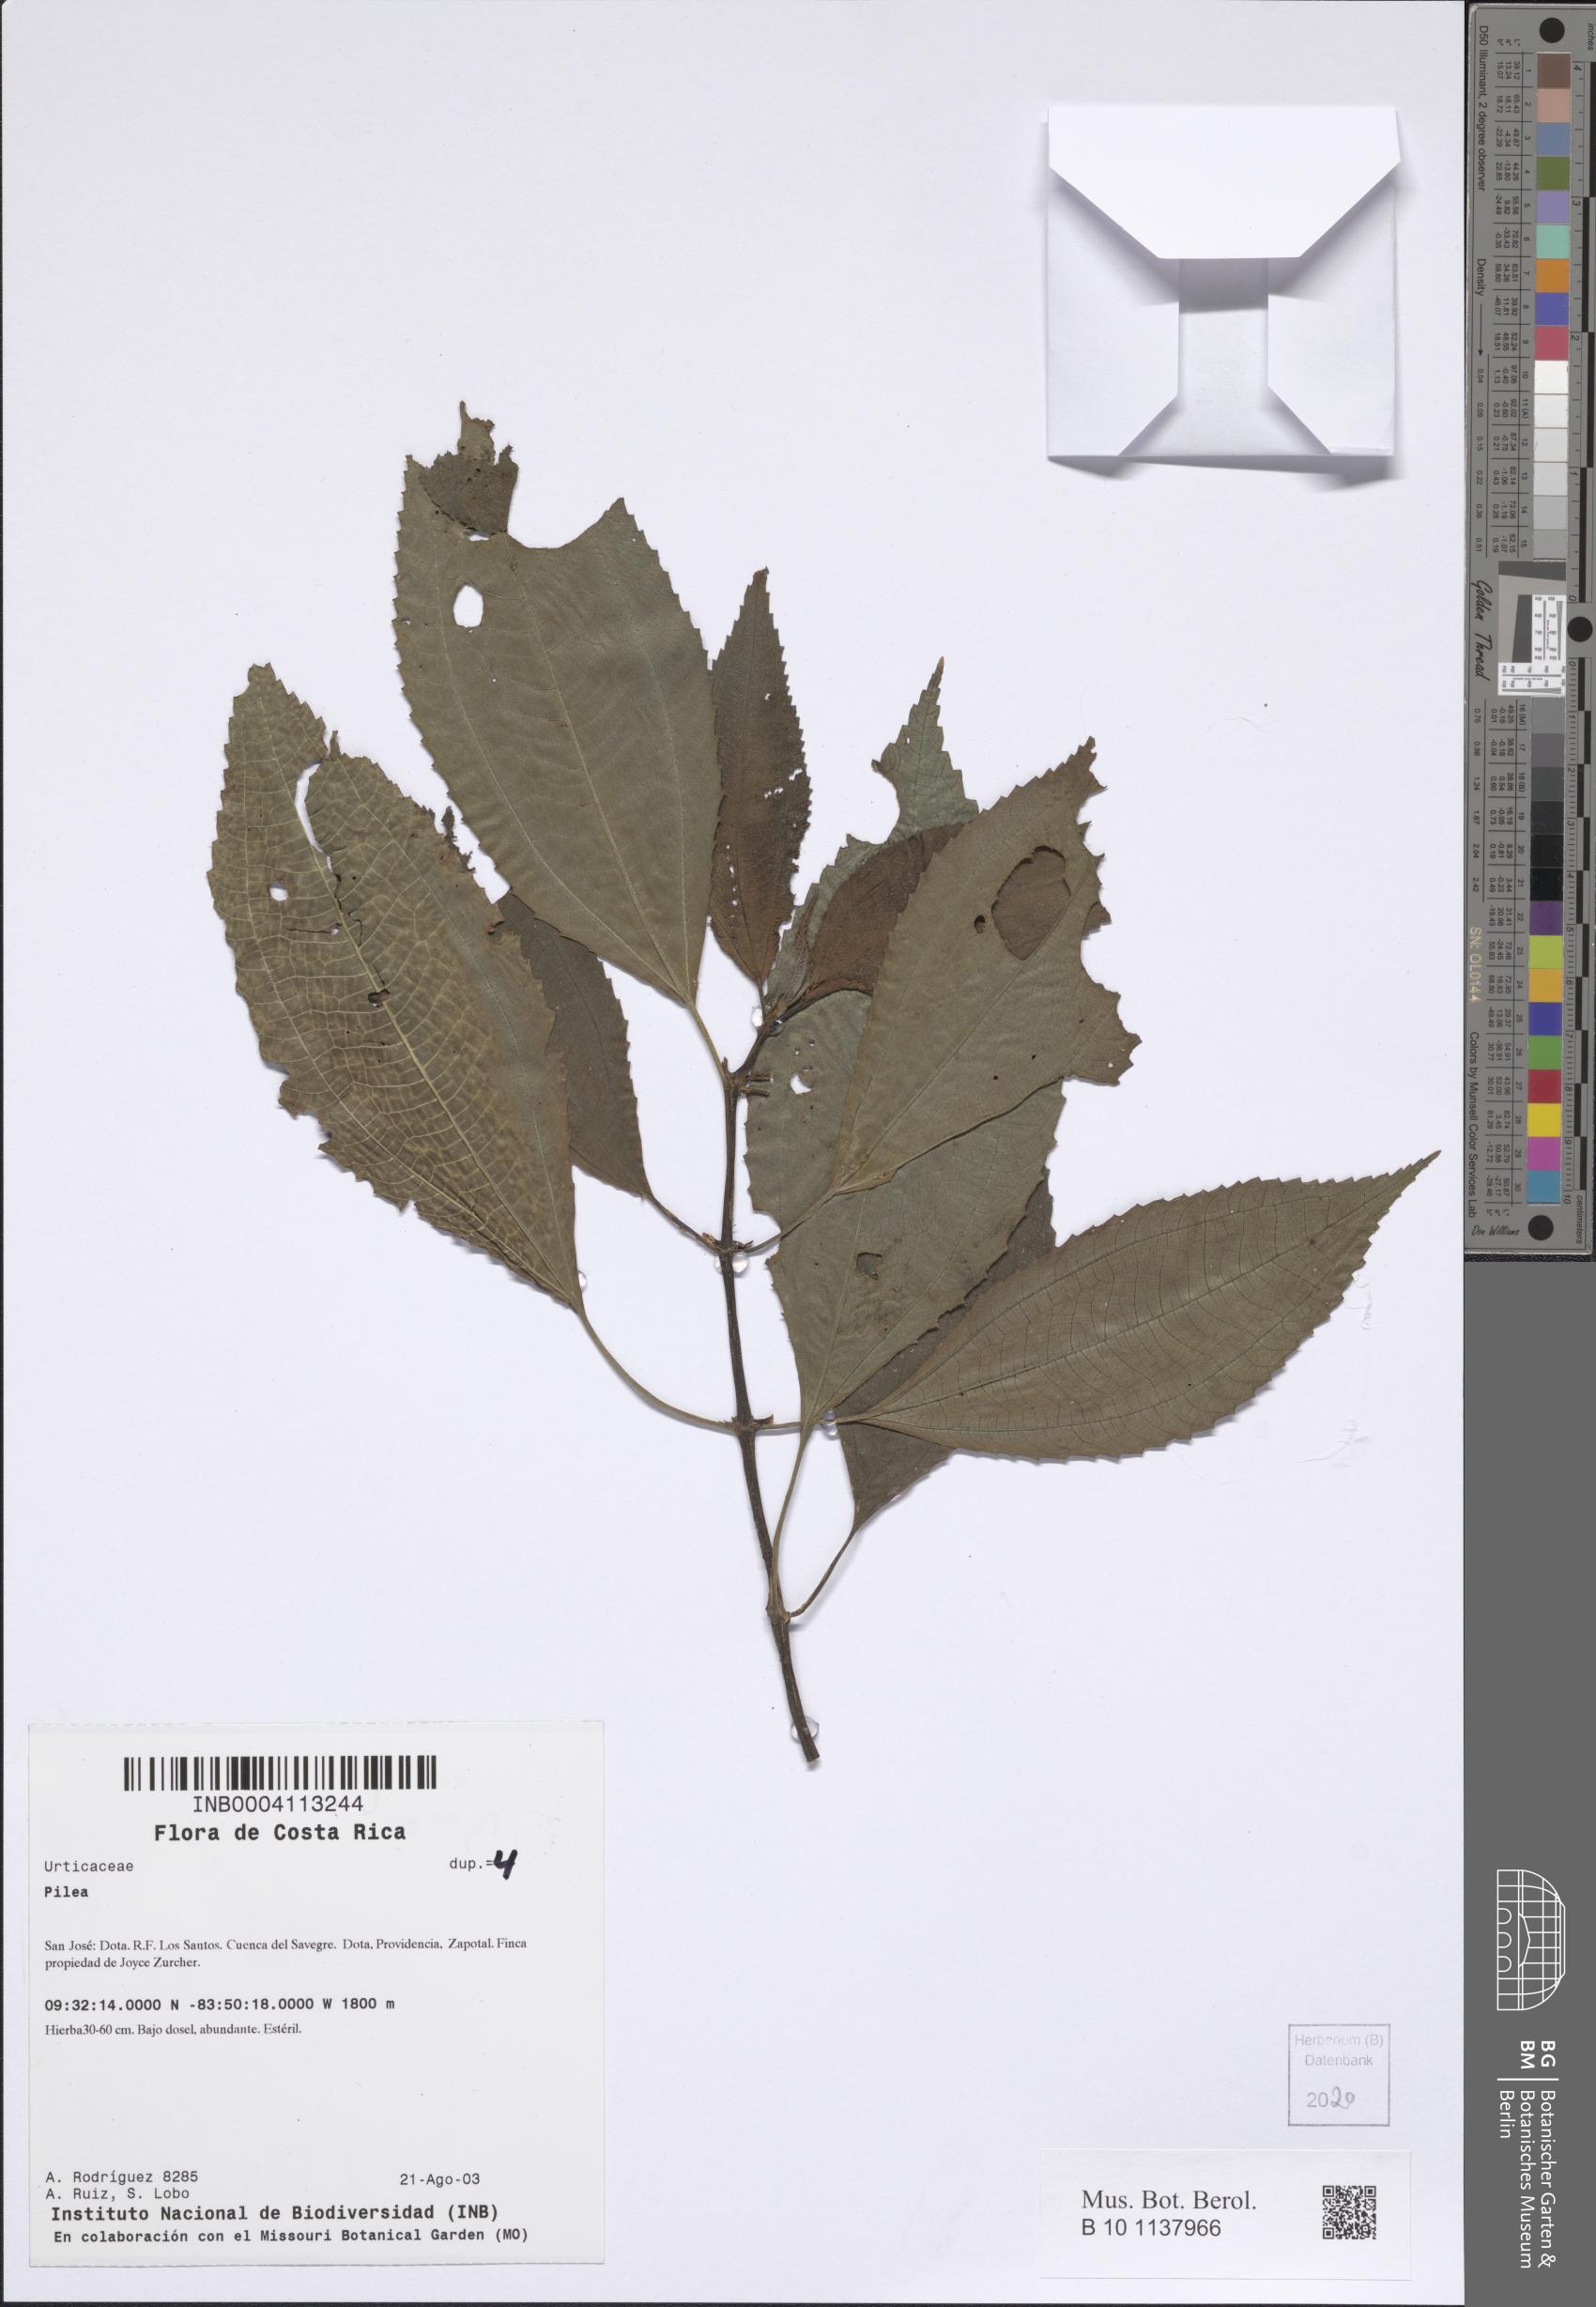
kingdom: Plantae
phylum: Tracheophyta
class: Magnoliopsida
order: Rosales
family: Urticaceae
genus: Pilea
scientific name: Pilea
